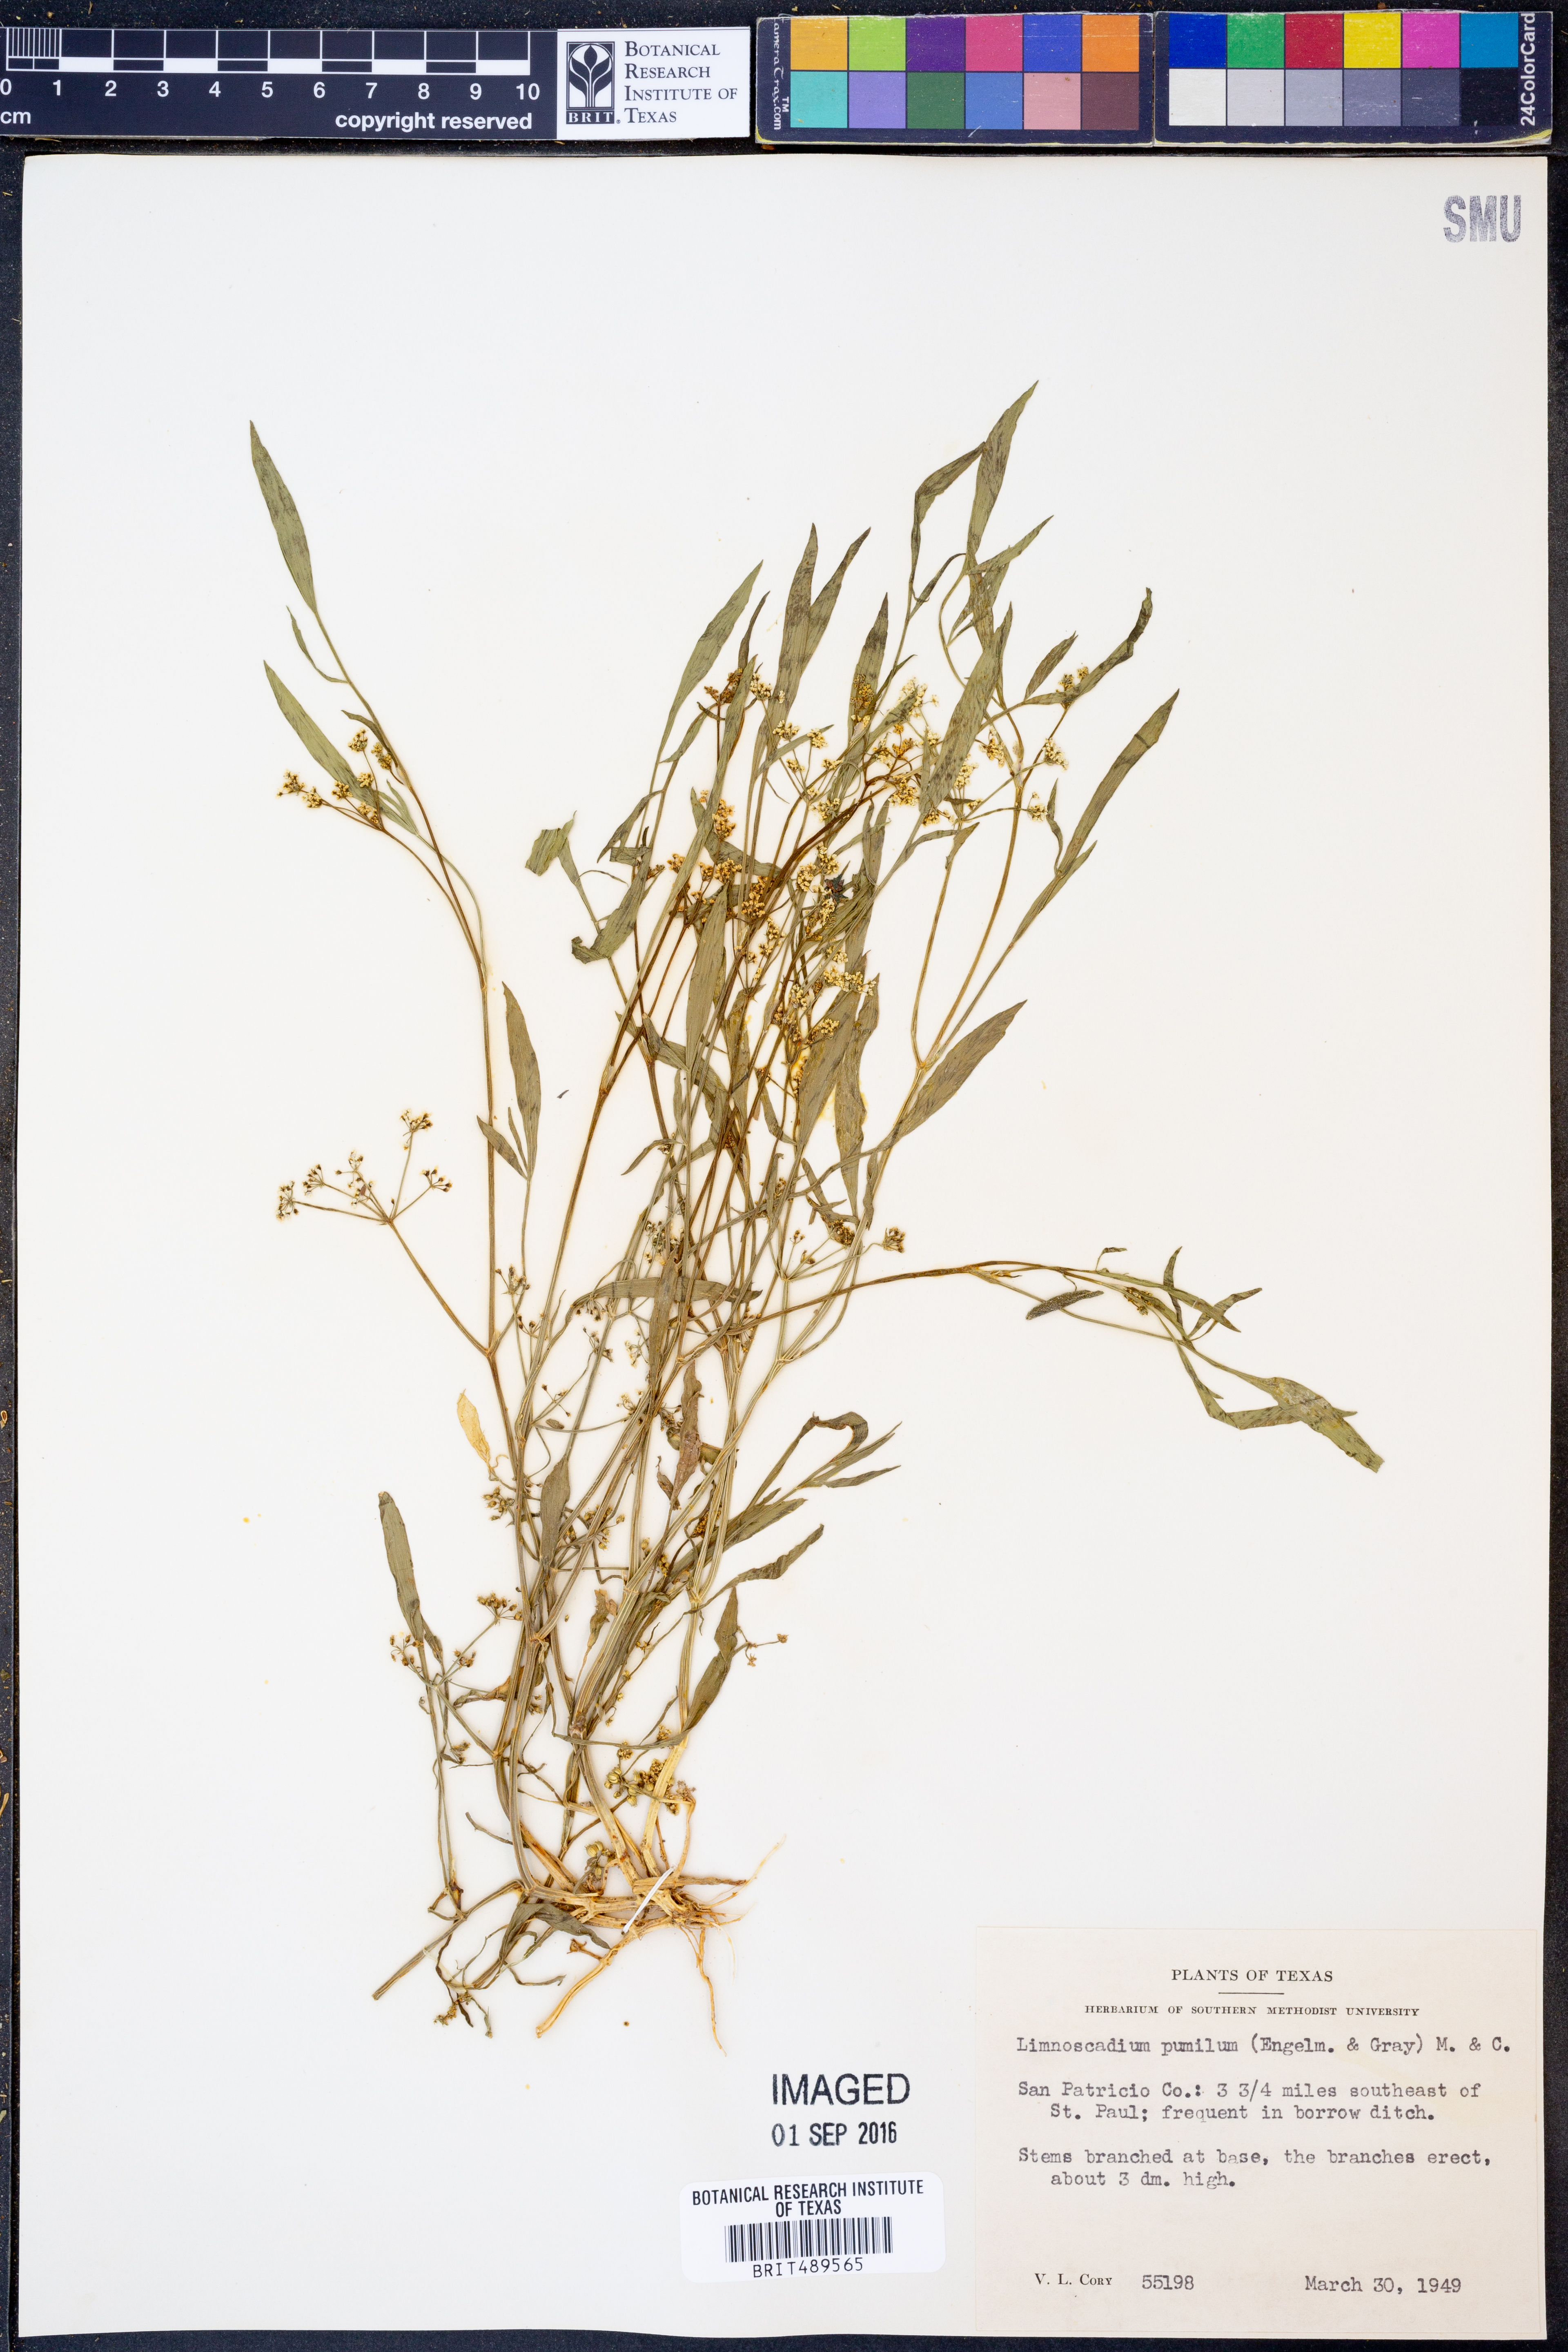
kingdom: Plantae
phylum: Tracheophyta
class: Magnoliopsida
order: Apiales
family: Apiaceae
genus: Limnosciadium
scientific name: Limnosciadium pinnatum
